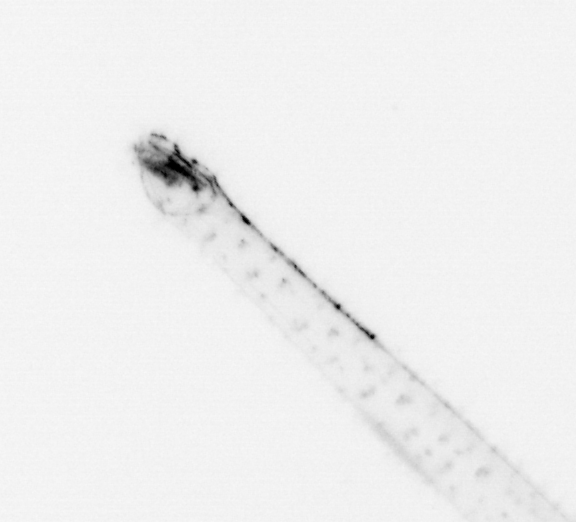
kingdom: Animalia
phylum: Chaetognatha
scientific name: Chaetognatha
